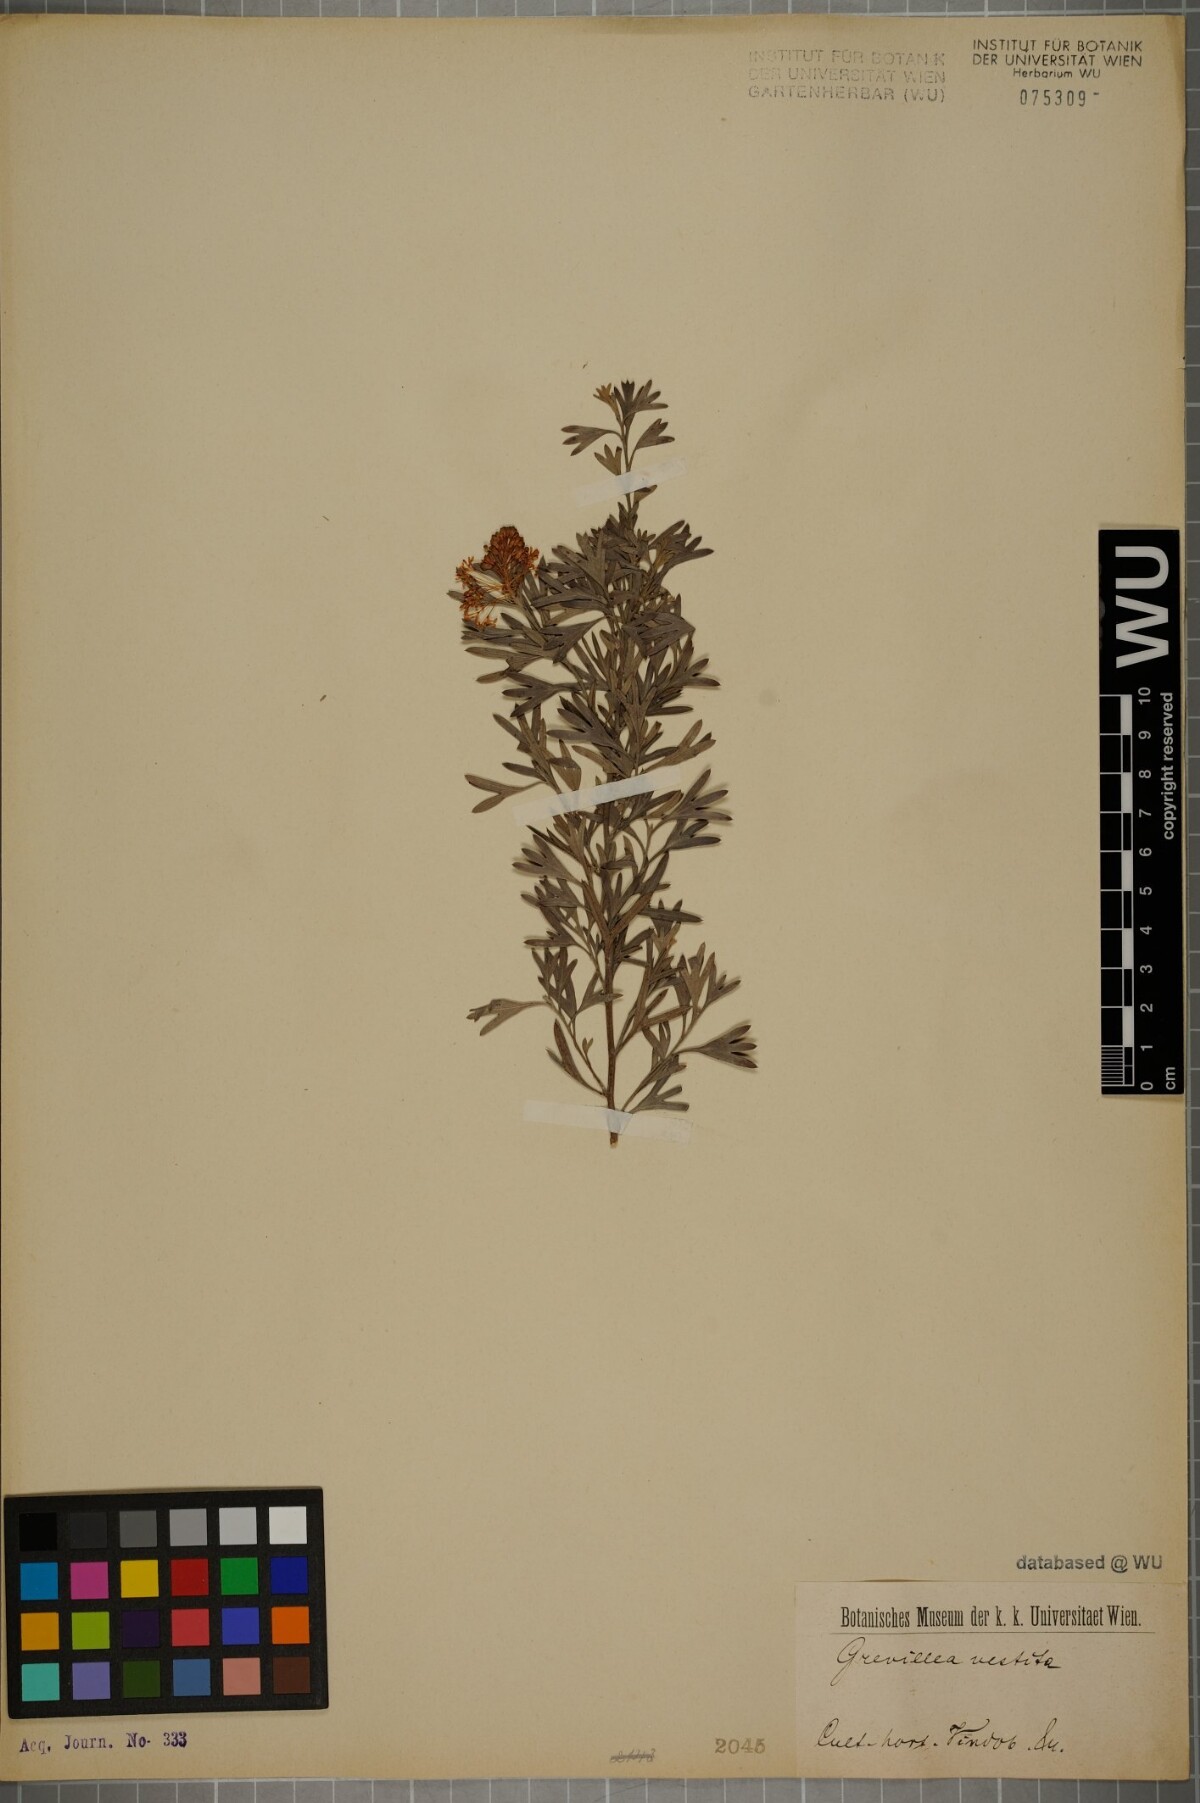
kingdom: Plantae
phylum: Tracheophyta
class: Magnoliopsida
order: Proteales
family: Proteaceae
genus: Grevillea
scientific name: Grevillea vestita
